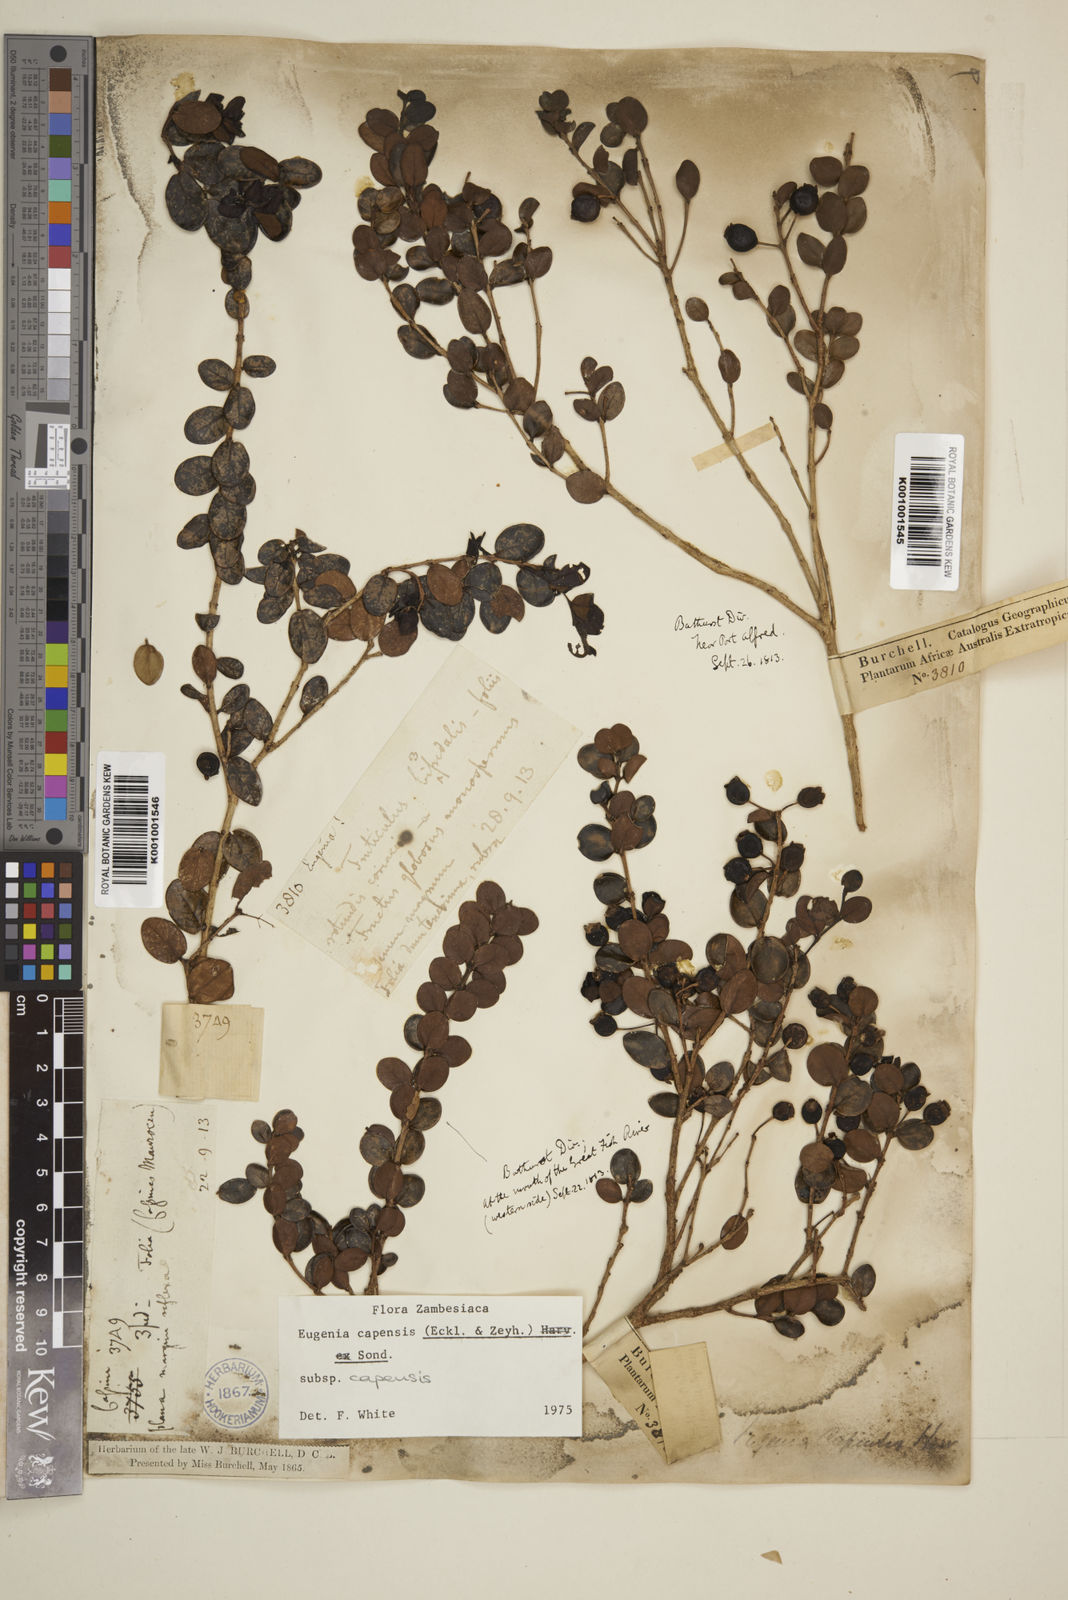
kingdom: Plantae
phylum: Tracheophyta
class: Magnoliopsida
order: Myrtales
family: Myrtaceae
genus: Eugenia
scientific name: Eugenia capensis
